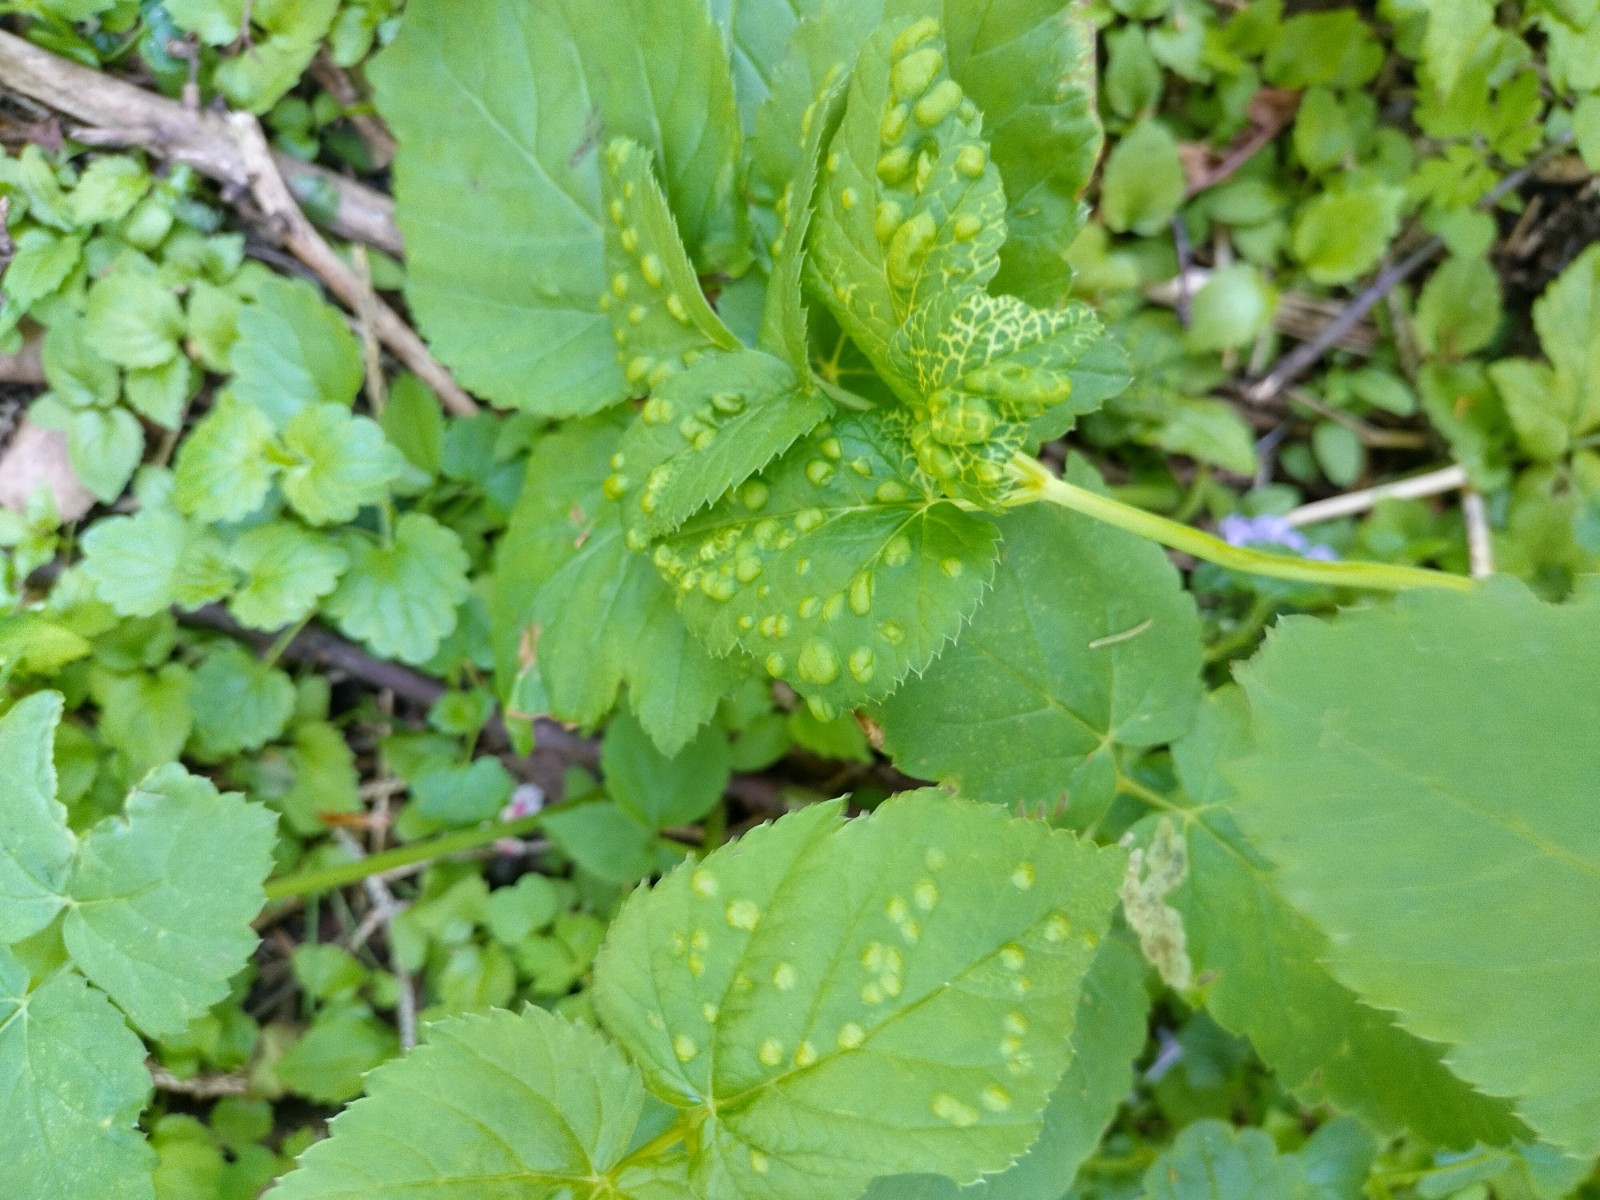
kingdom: Fungi
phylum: Ascomycota
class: Taphrinomycetes
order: Taphrinales
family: Taphrinaceae
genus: Protomyces
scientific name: Protomyces macrosporus
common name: skvalderkål-vablesæk
